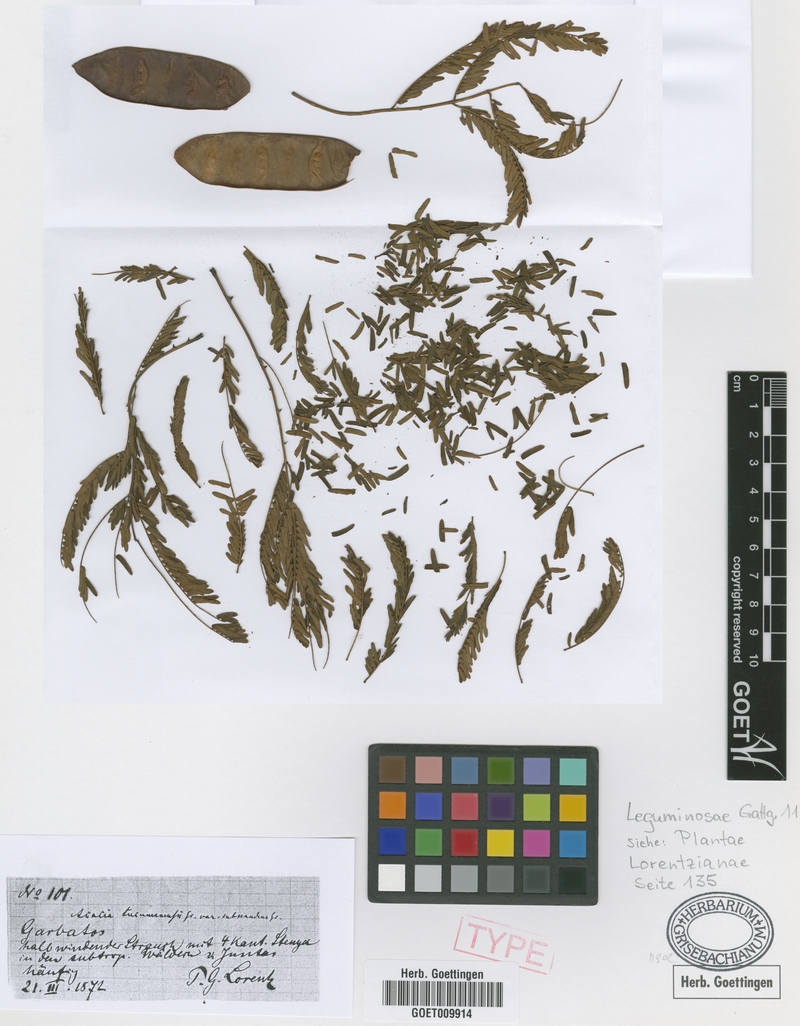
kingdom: Plantae
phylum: Tracheophyta
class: Magnoliopsida
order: Fabales
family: Fabaceae
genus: Senegalia
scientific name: Senegalia tucumanensis
